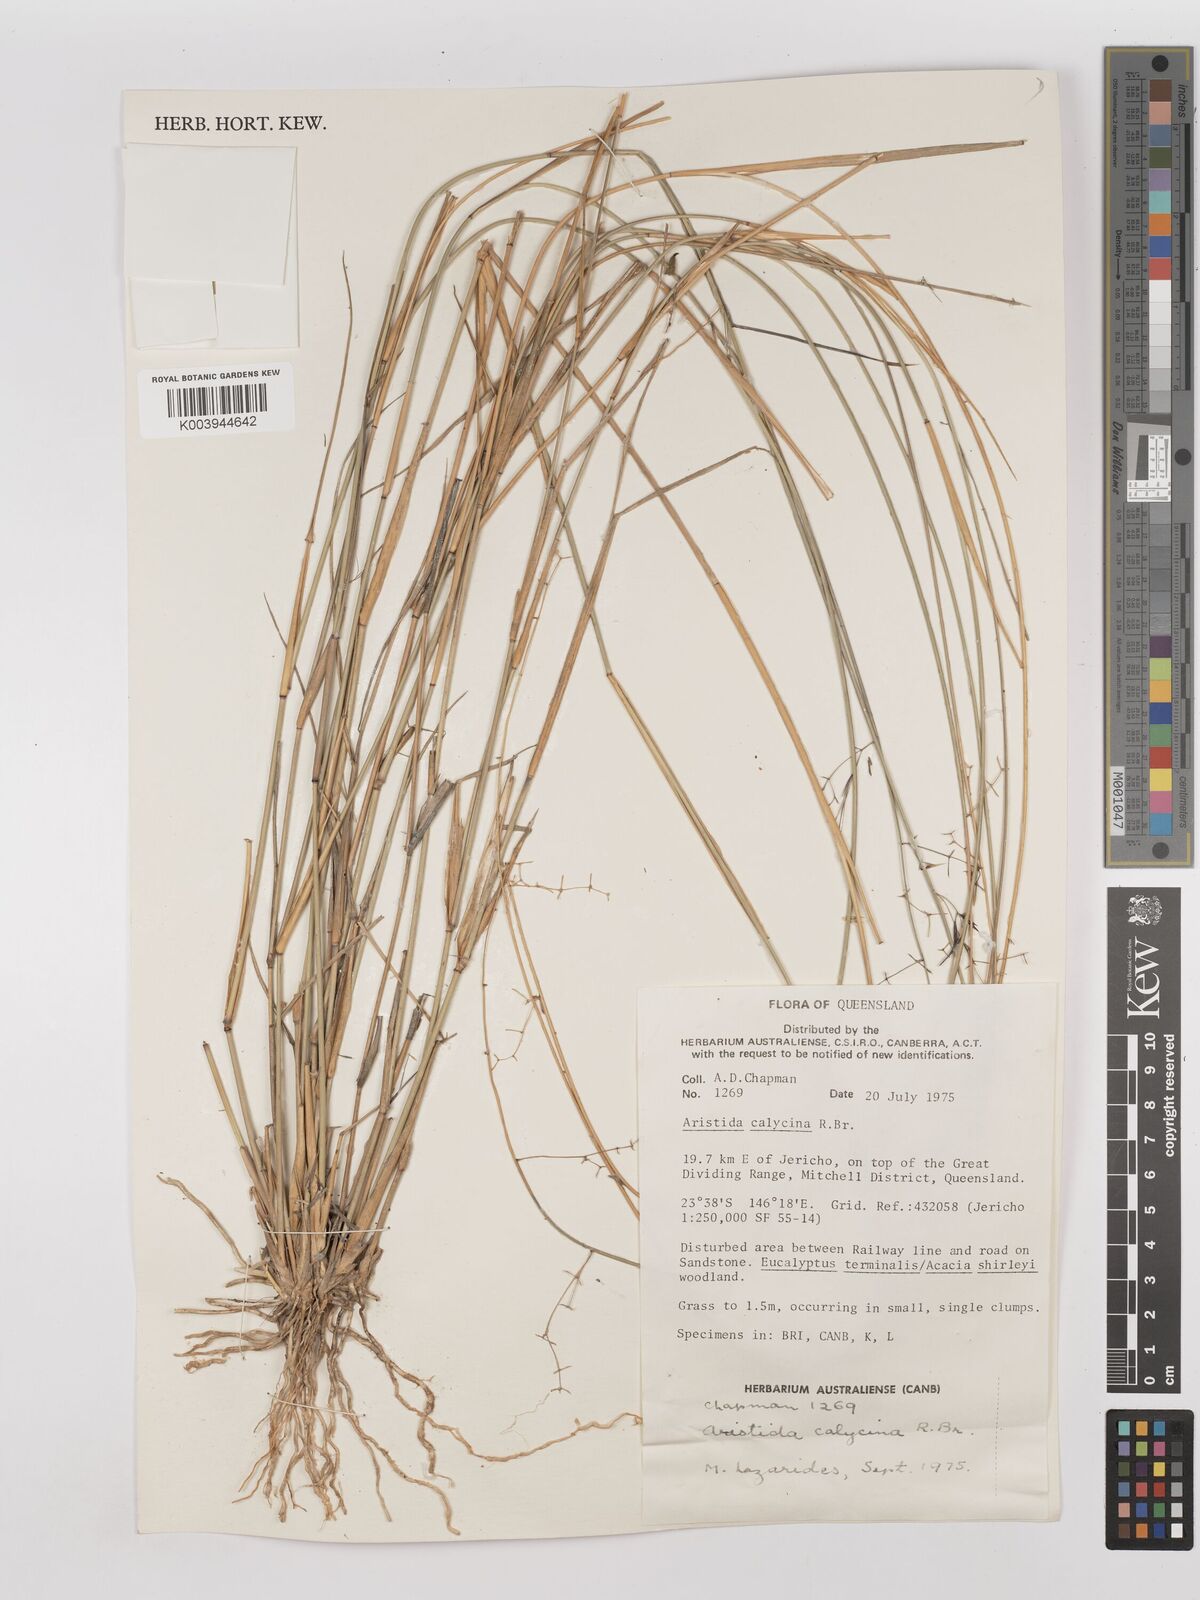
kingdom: Plantae
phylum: Tracheophyta
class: Liliopsida
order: Poales
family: Poaceae
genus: Aristida
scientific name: Aristida calycina
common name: Dark wire grass
